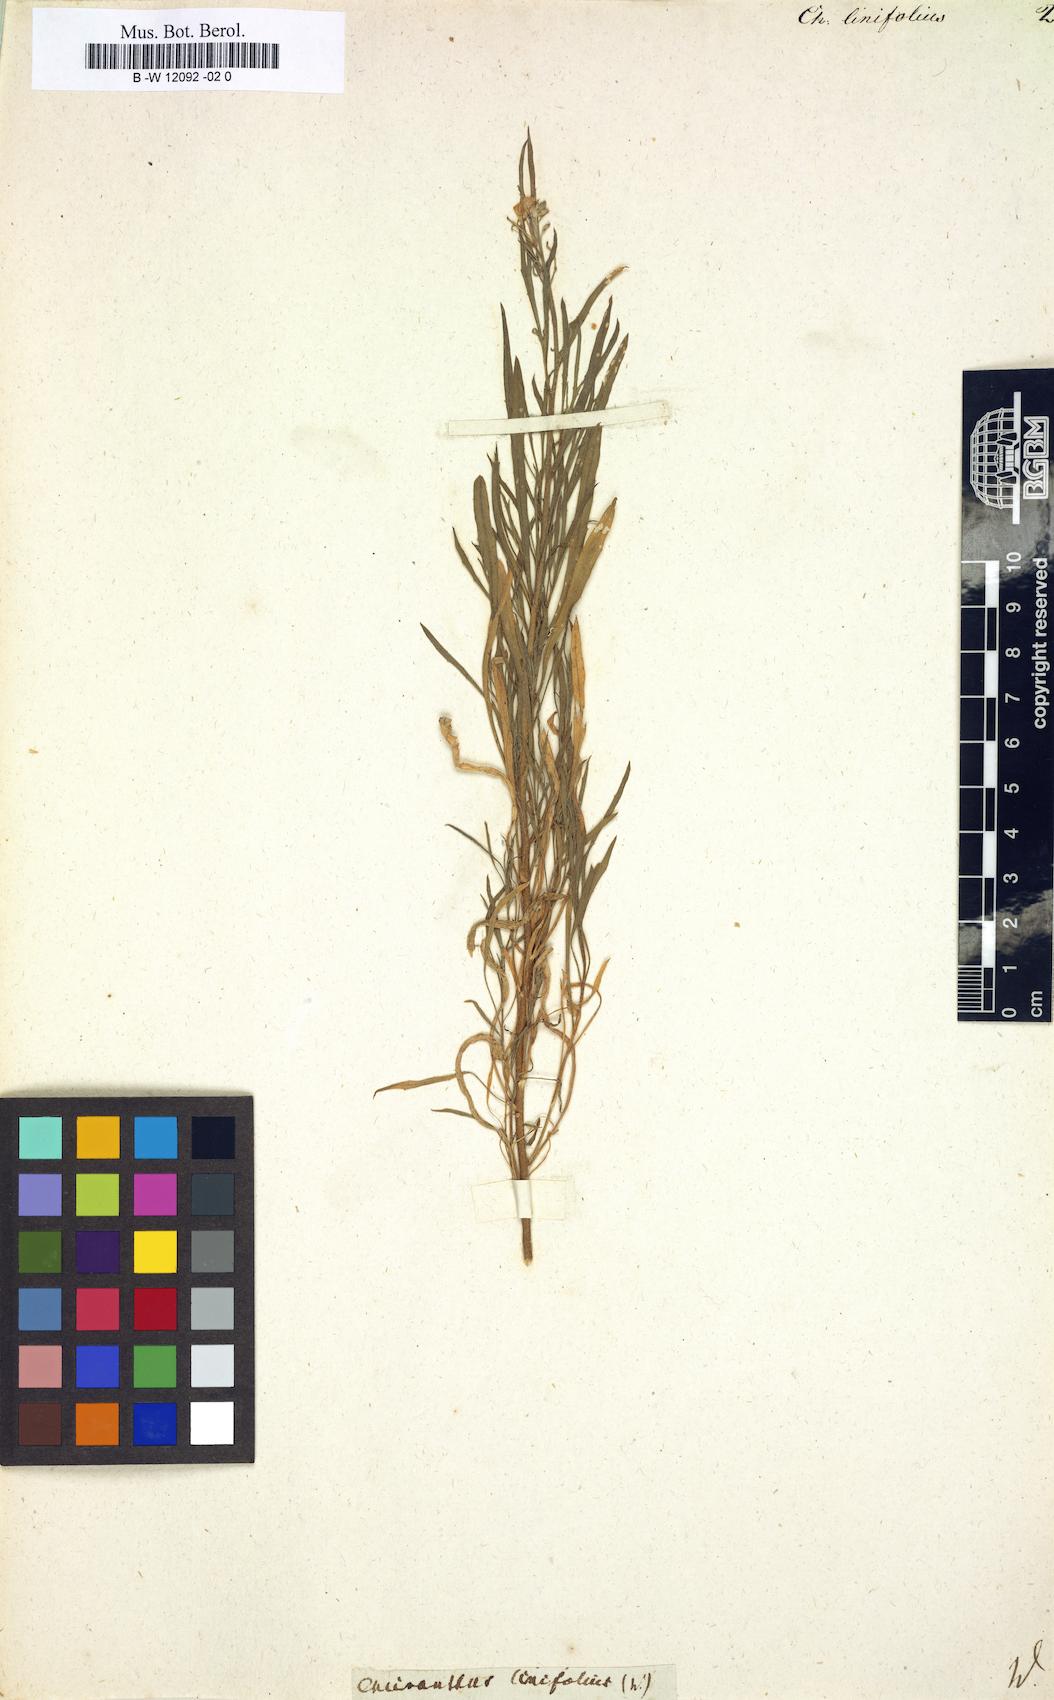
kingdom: Plantae
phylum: Tracheophyta
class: Magnoliopsida
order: Brassicales
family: Brassicaceae
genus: Erysimum
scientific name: Erysimum linifolium
